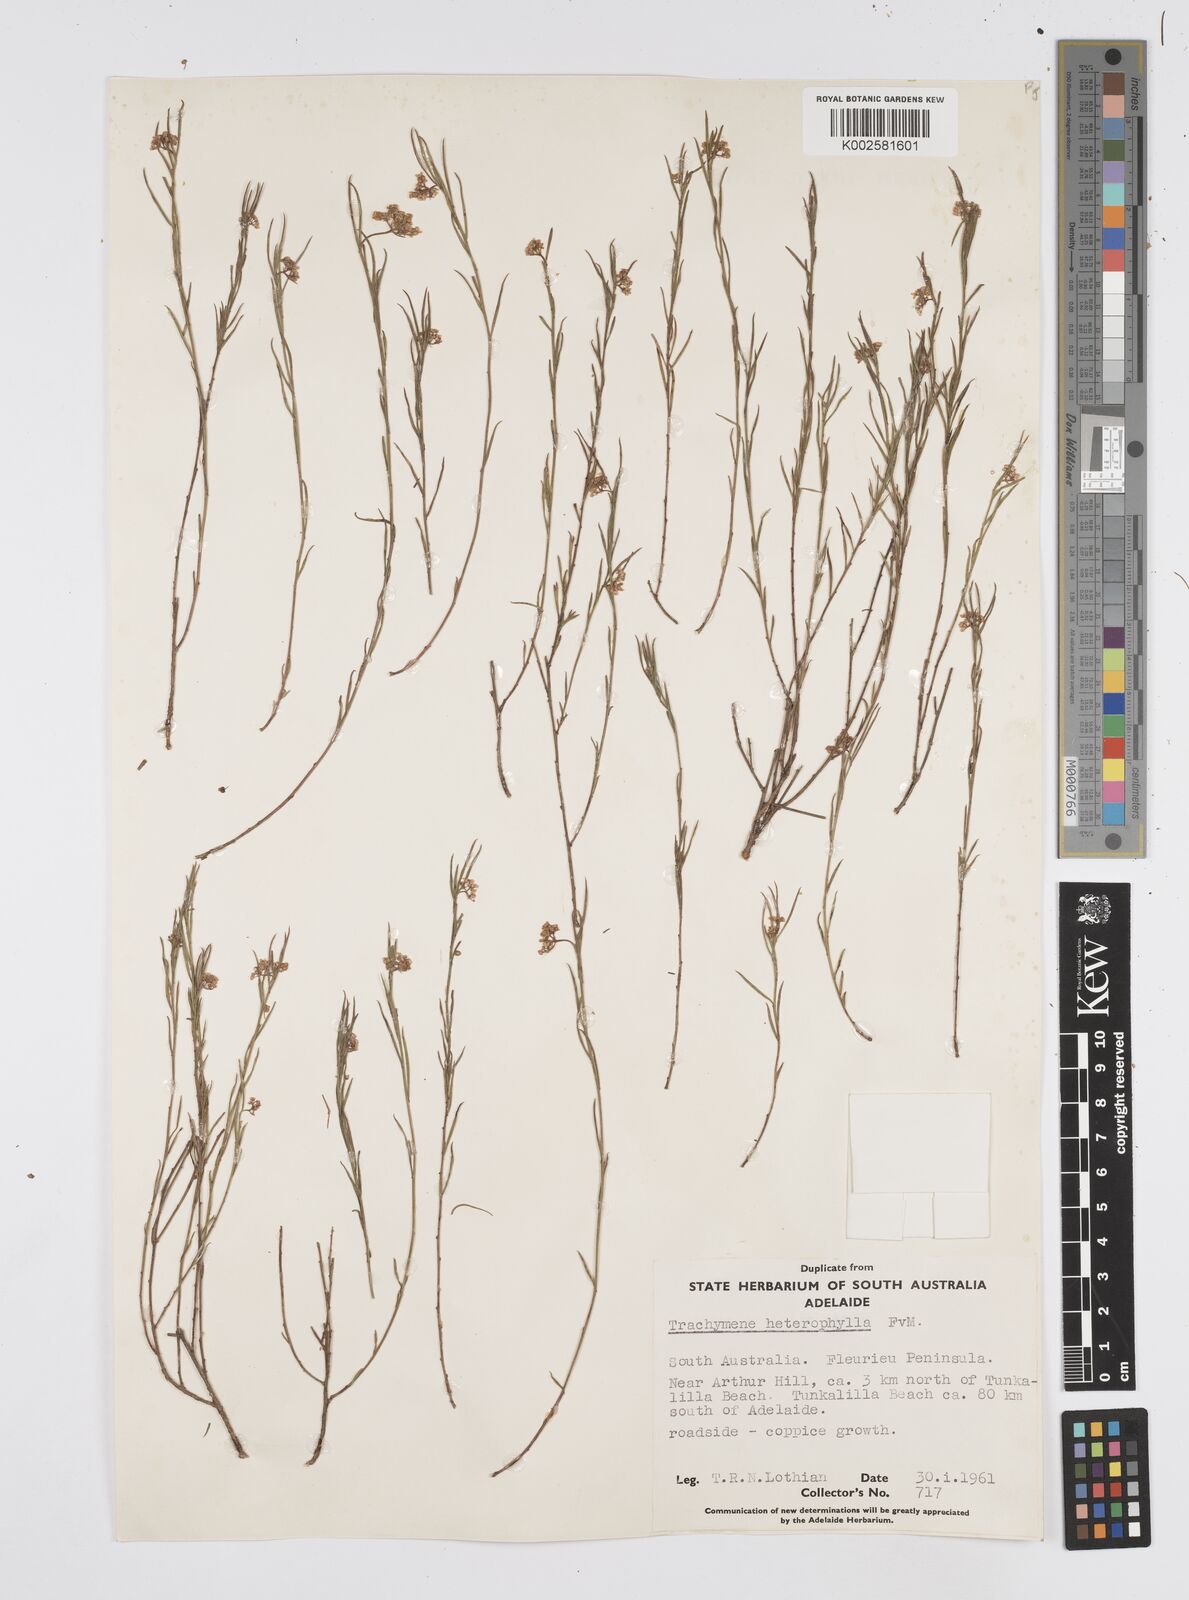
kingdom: Plantae
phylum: Tracheophyta
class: Magnoliopsida
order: Apiales
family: Apiaceae
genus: Platysace
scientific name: Platysace heterophylla
